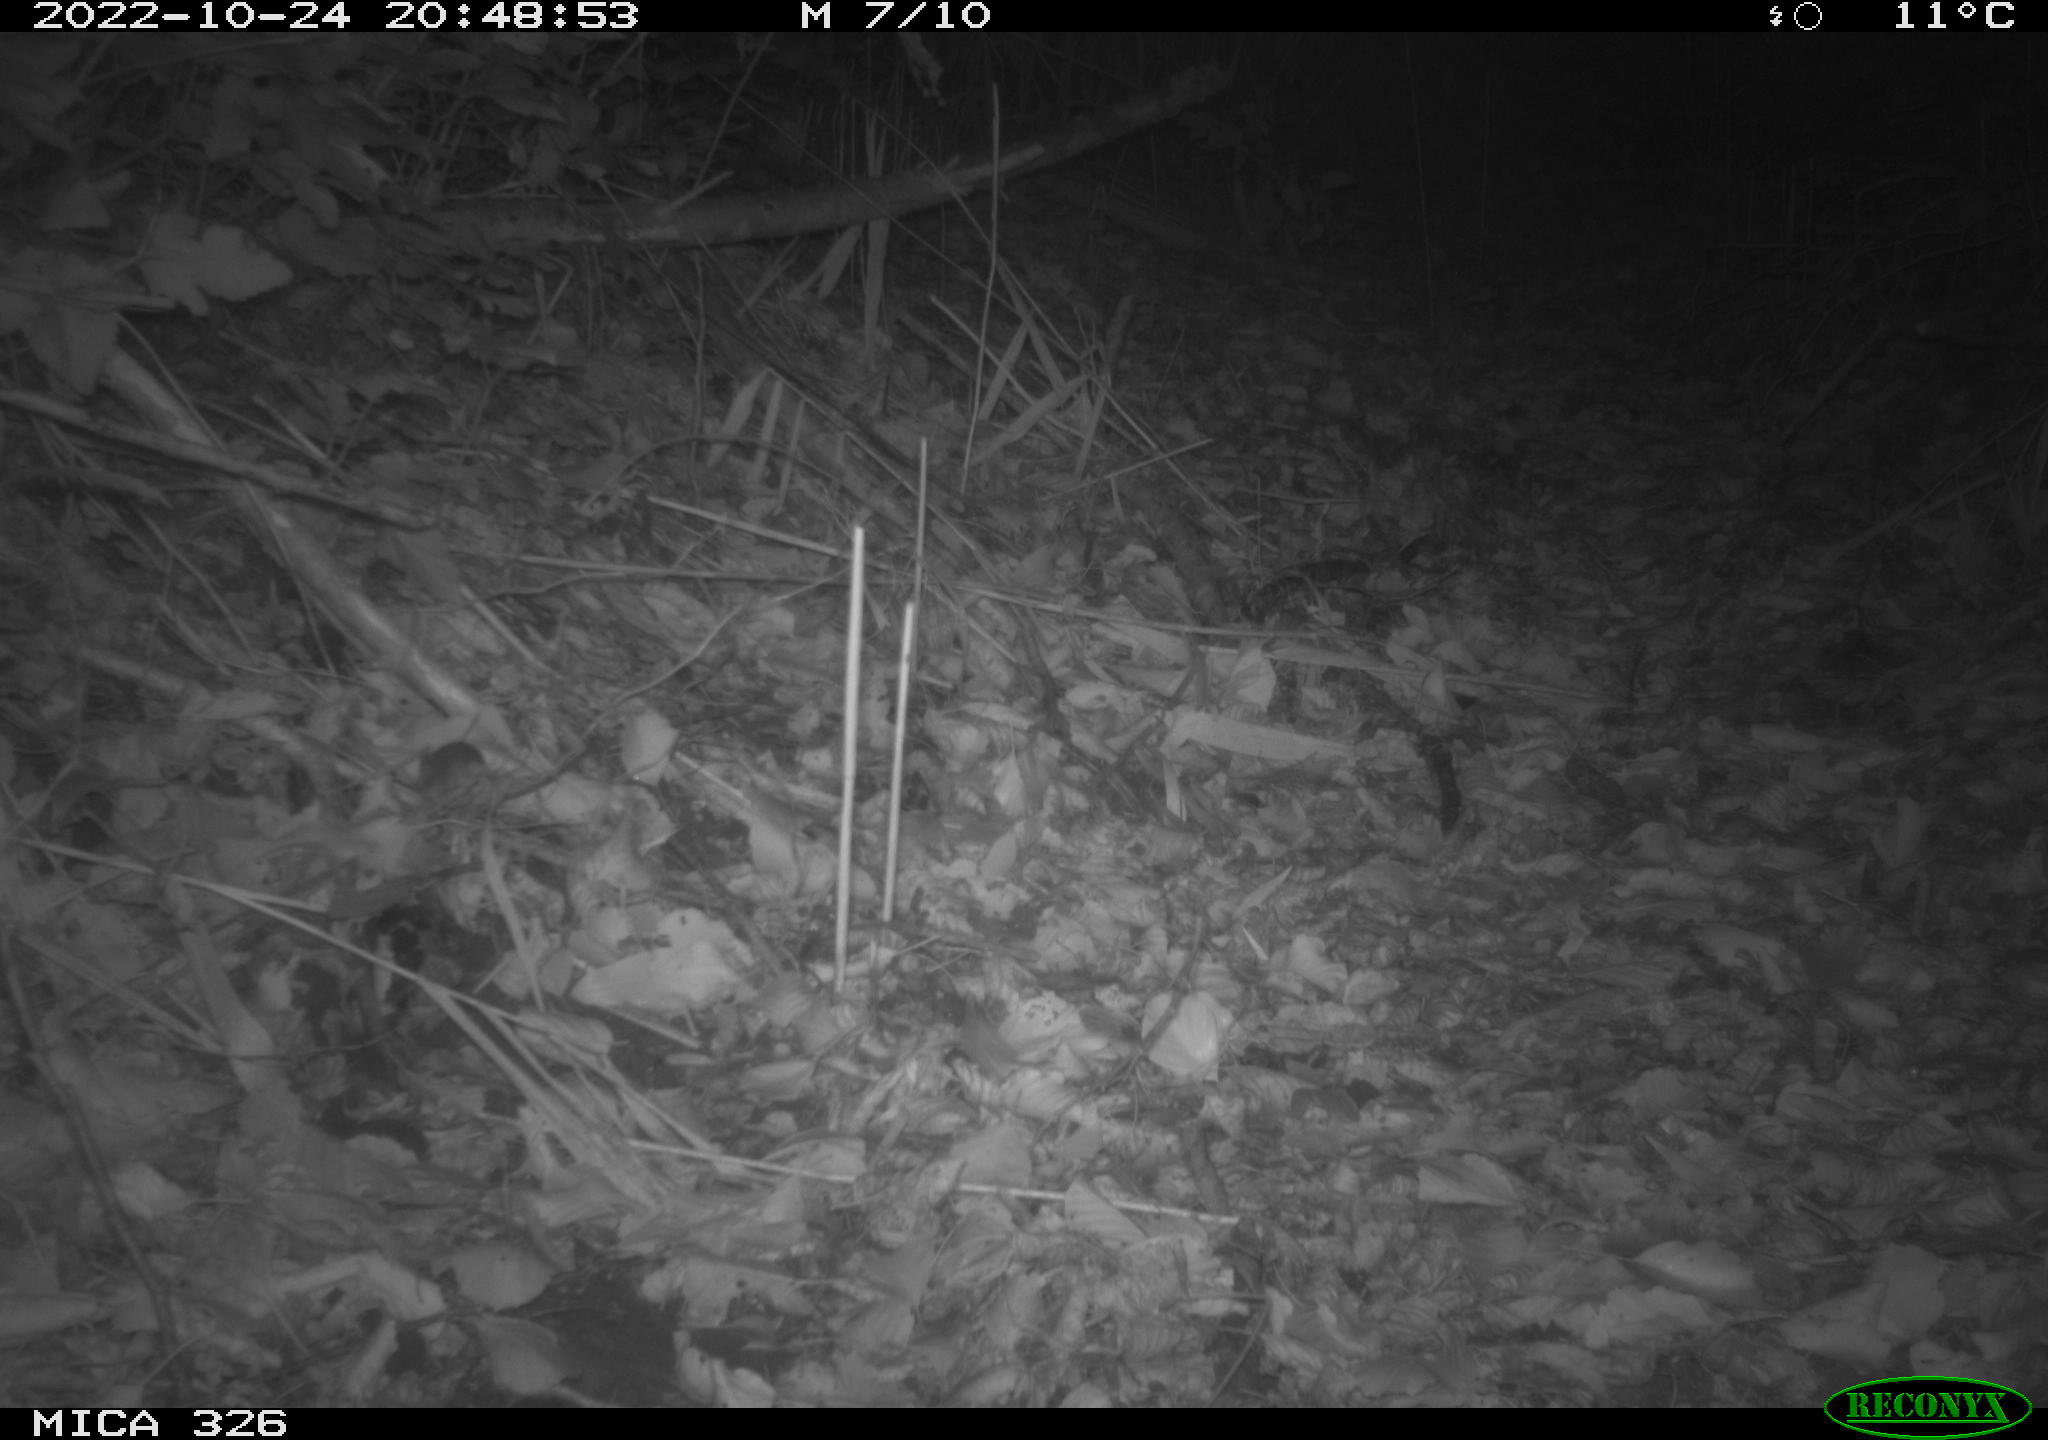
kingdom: Animalia
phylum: Chordata
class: Mammalia
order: Rodentia
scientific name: Rodentia
